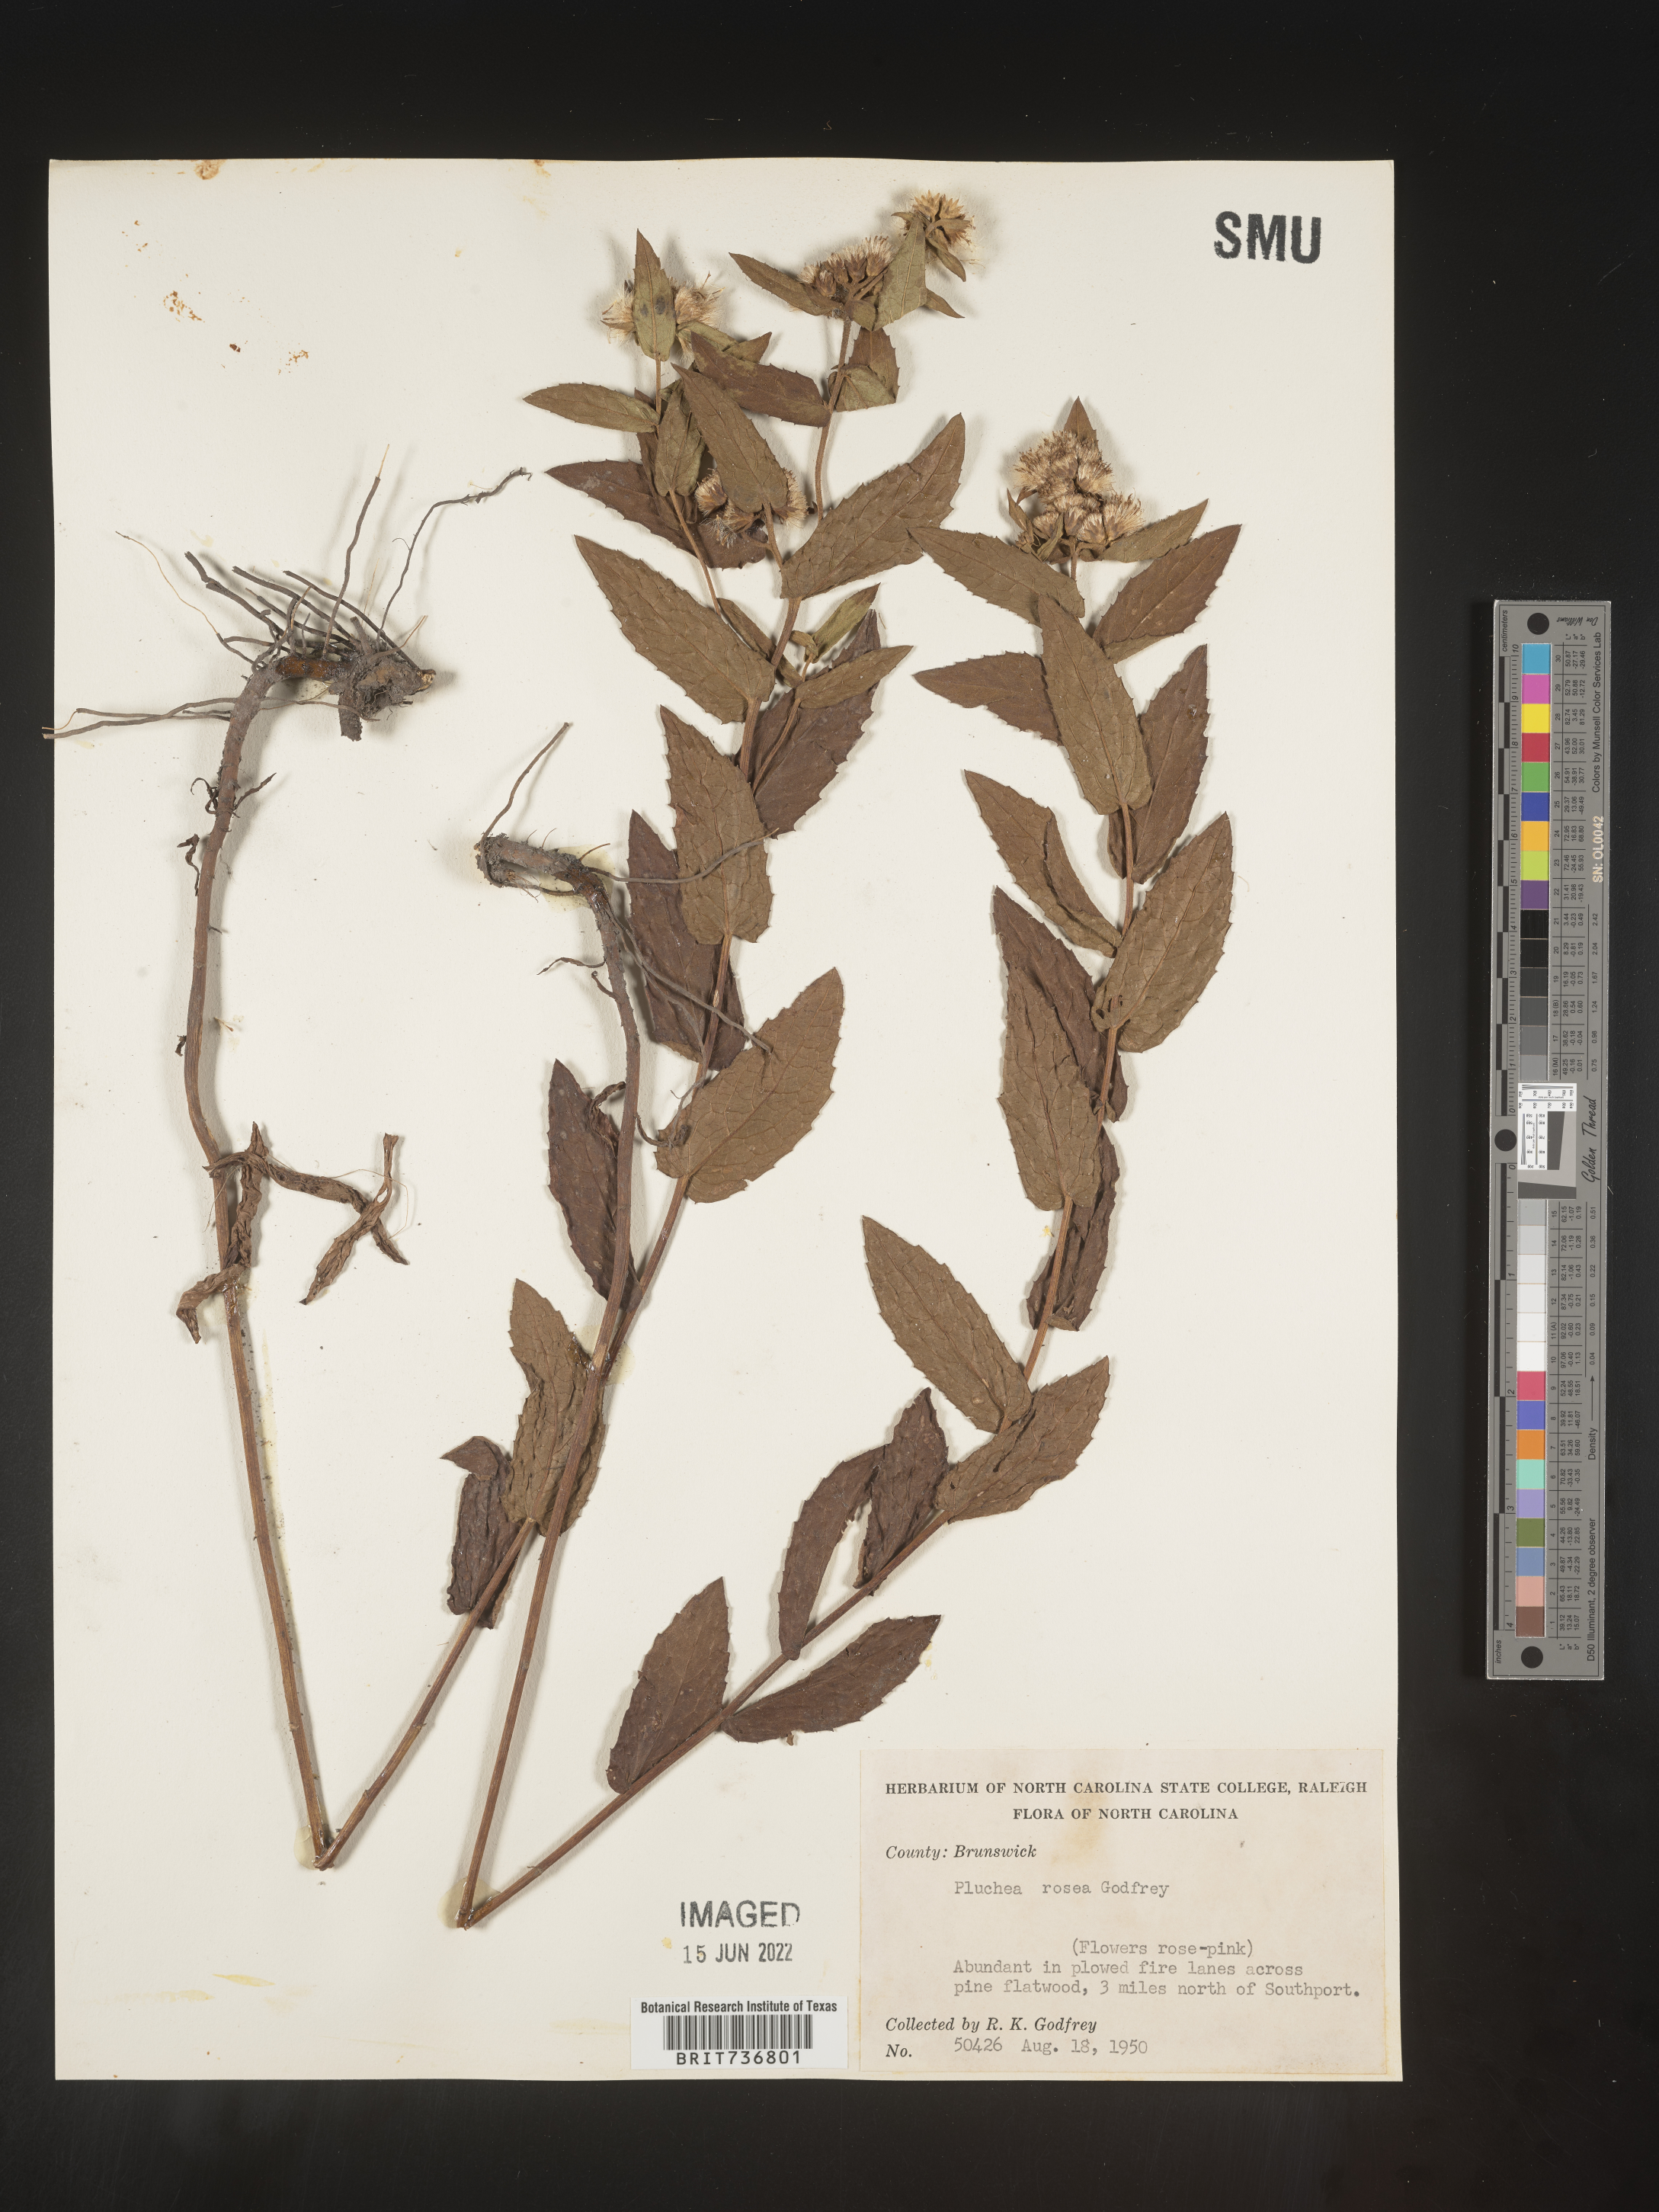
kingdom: Plantae
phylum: Tracheophyta
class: Magnoliopsida
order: Asterales
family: Asteraceae
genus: Pluchea
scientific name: Pluchea baccharis
